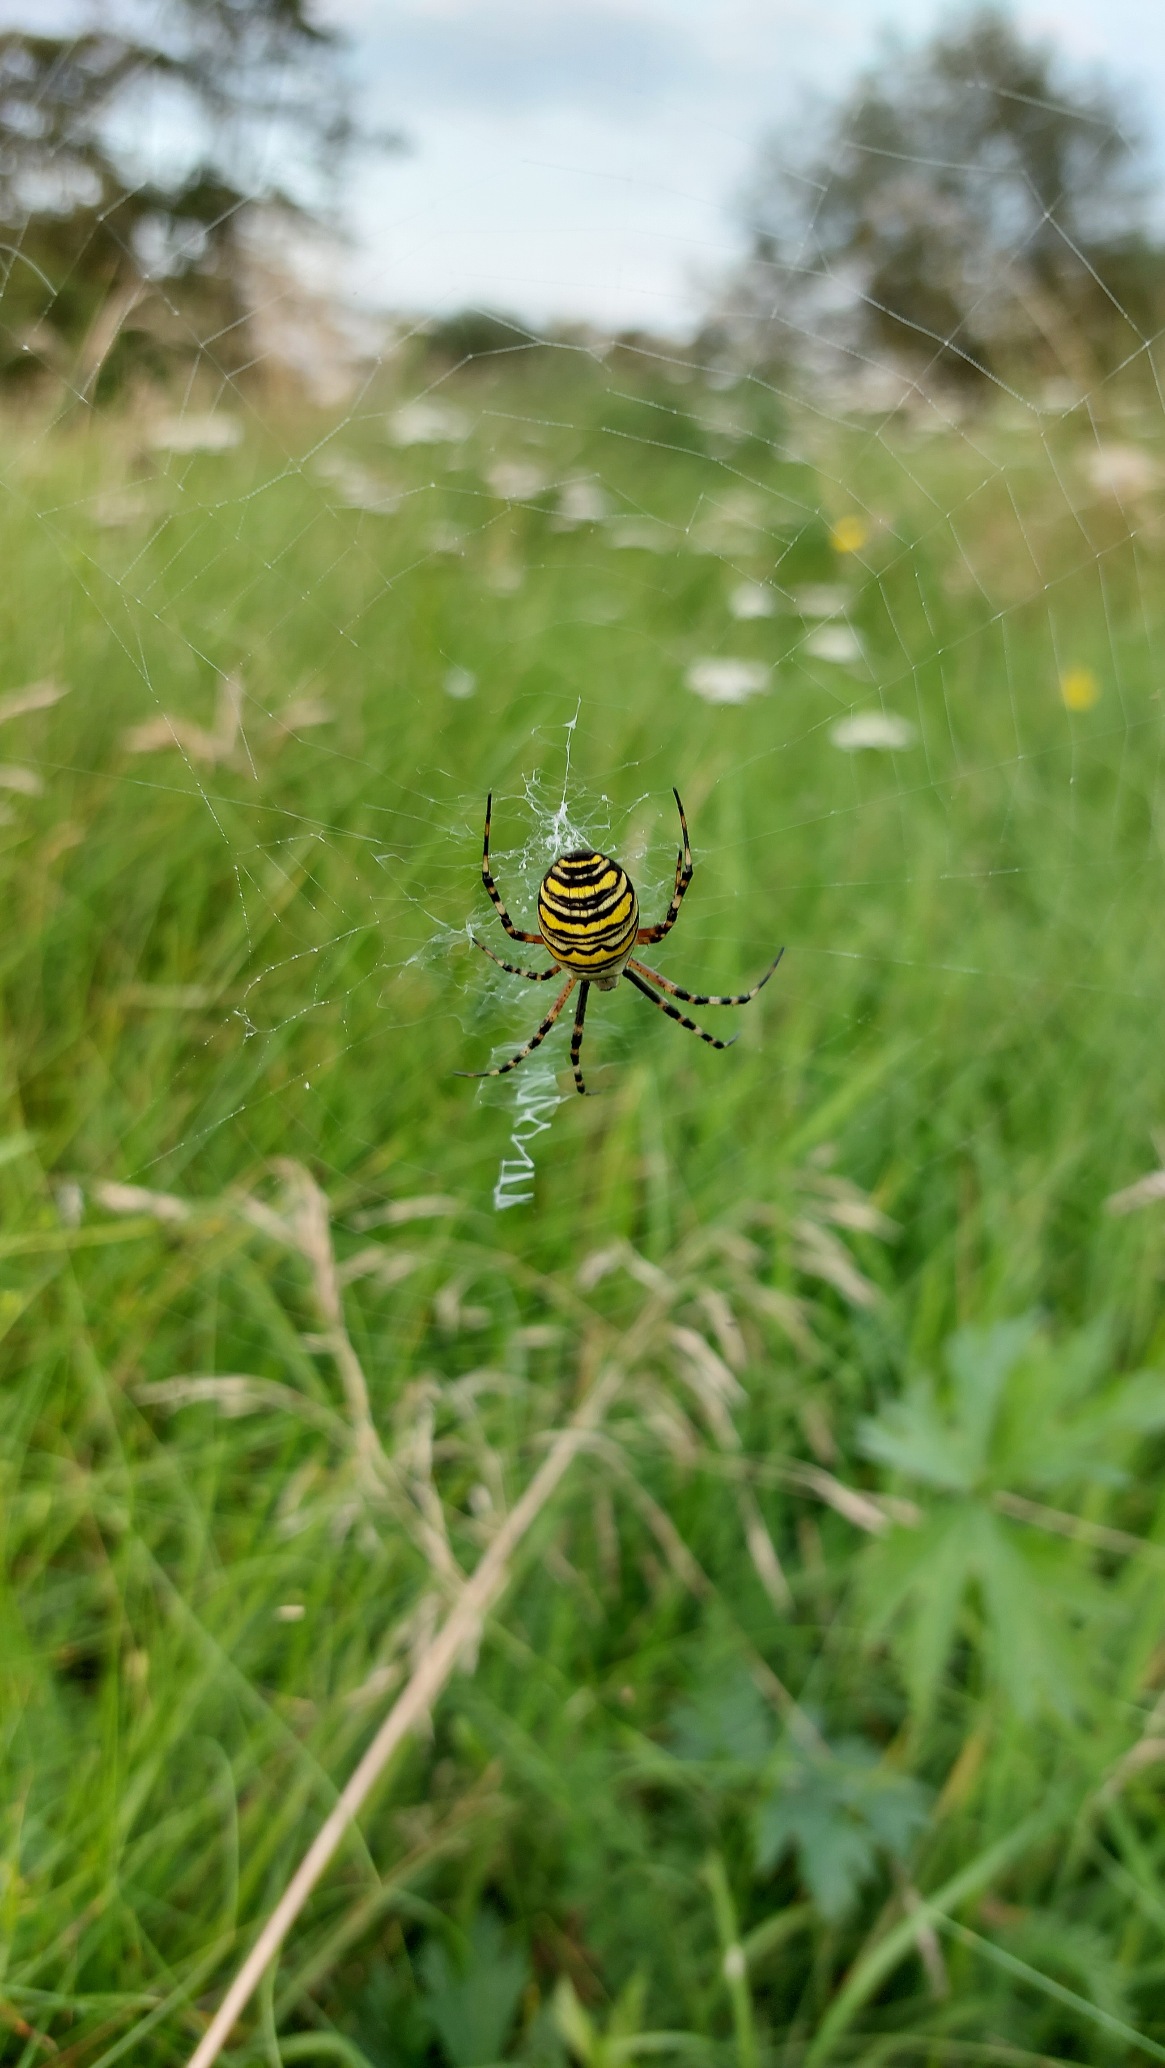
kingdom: Animalia
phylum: Arthropoda
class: Arachnida
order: Araneae
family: Araneidae
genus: Argiope
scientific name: Argiope bruennichi
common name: Hvepseedderkop
